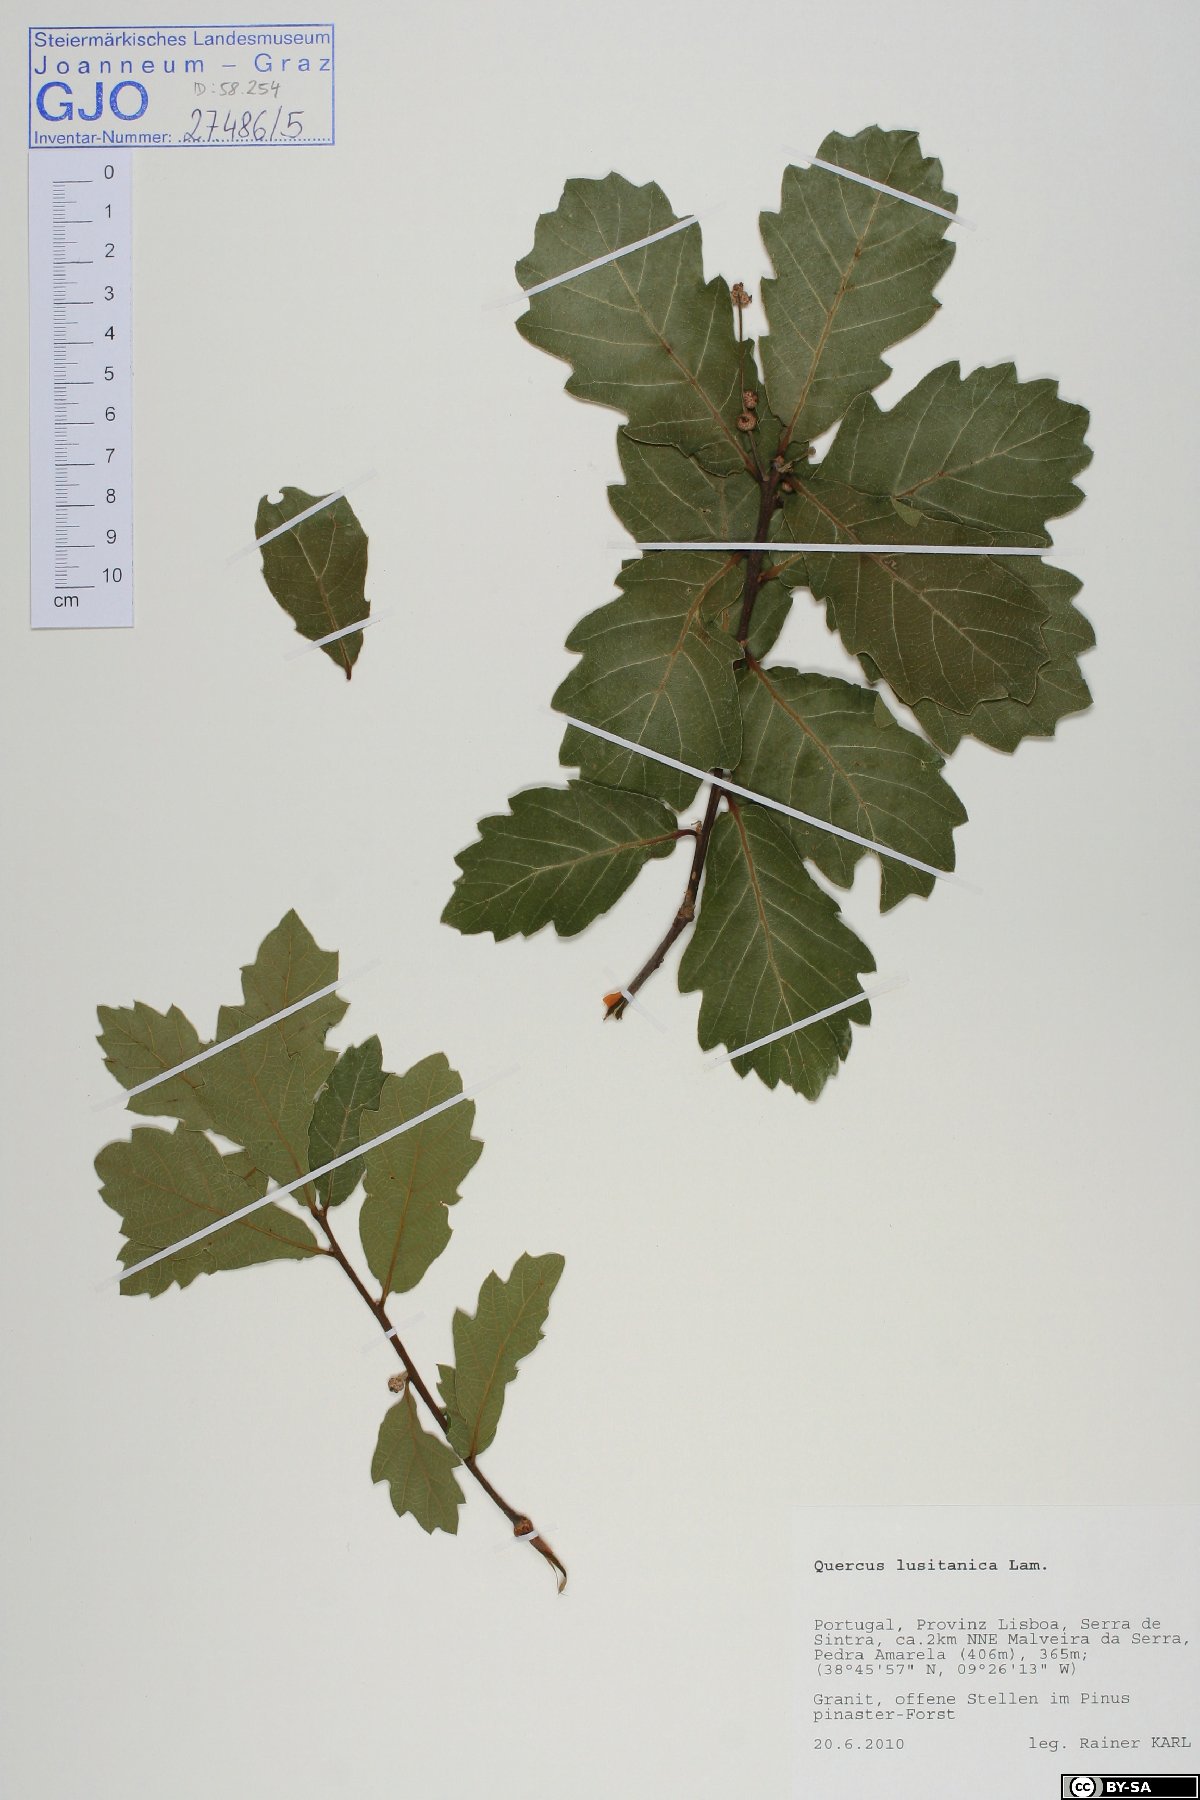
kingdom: Plantae
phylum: Tracheophyta
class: Magnoliopsida
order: Fagales
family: Fagaceae
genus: Quercus
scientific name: Quercus lusitanica
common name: Scrub gall oak
